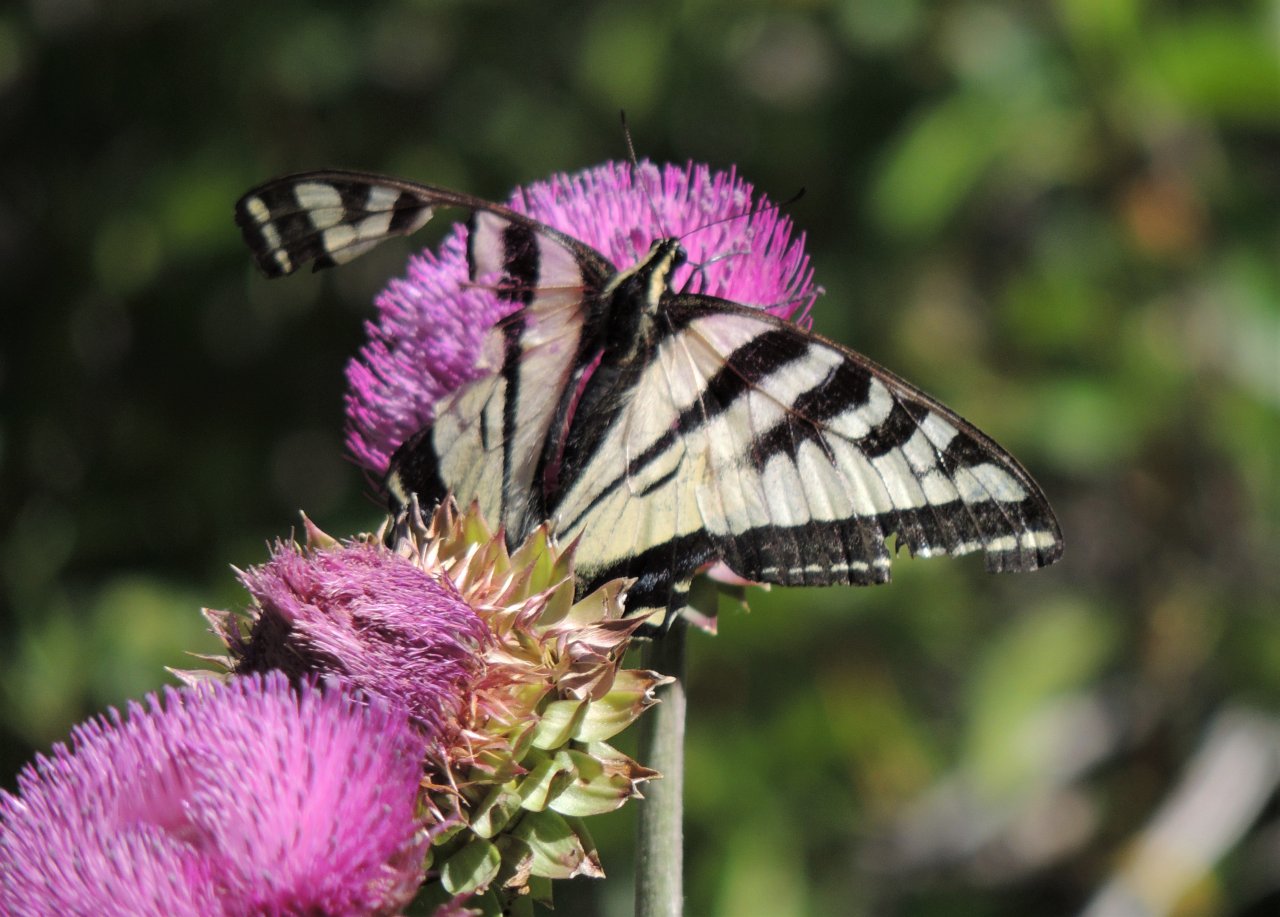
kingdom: Animalia
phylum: Arthropoda
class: Insecta
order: Lepidoptera
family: Papilionidae
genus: Pterourus
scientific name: Pterourus rutulus
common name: Western Tiger Swallowtail
